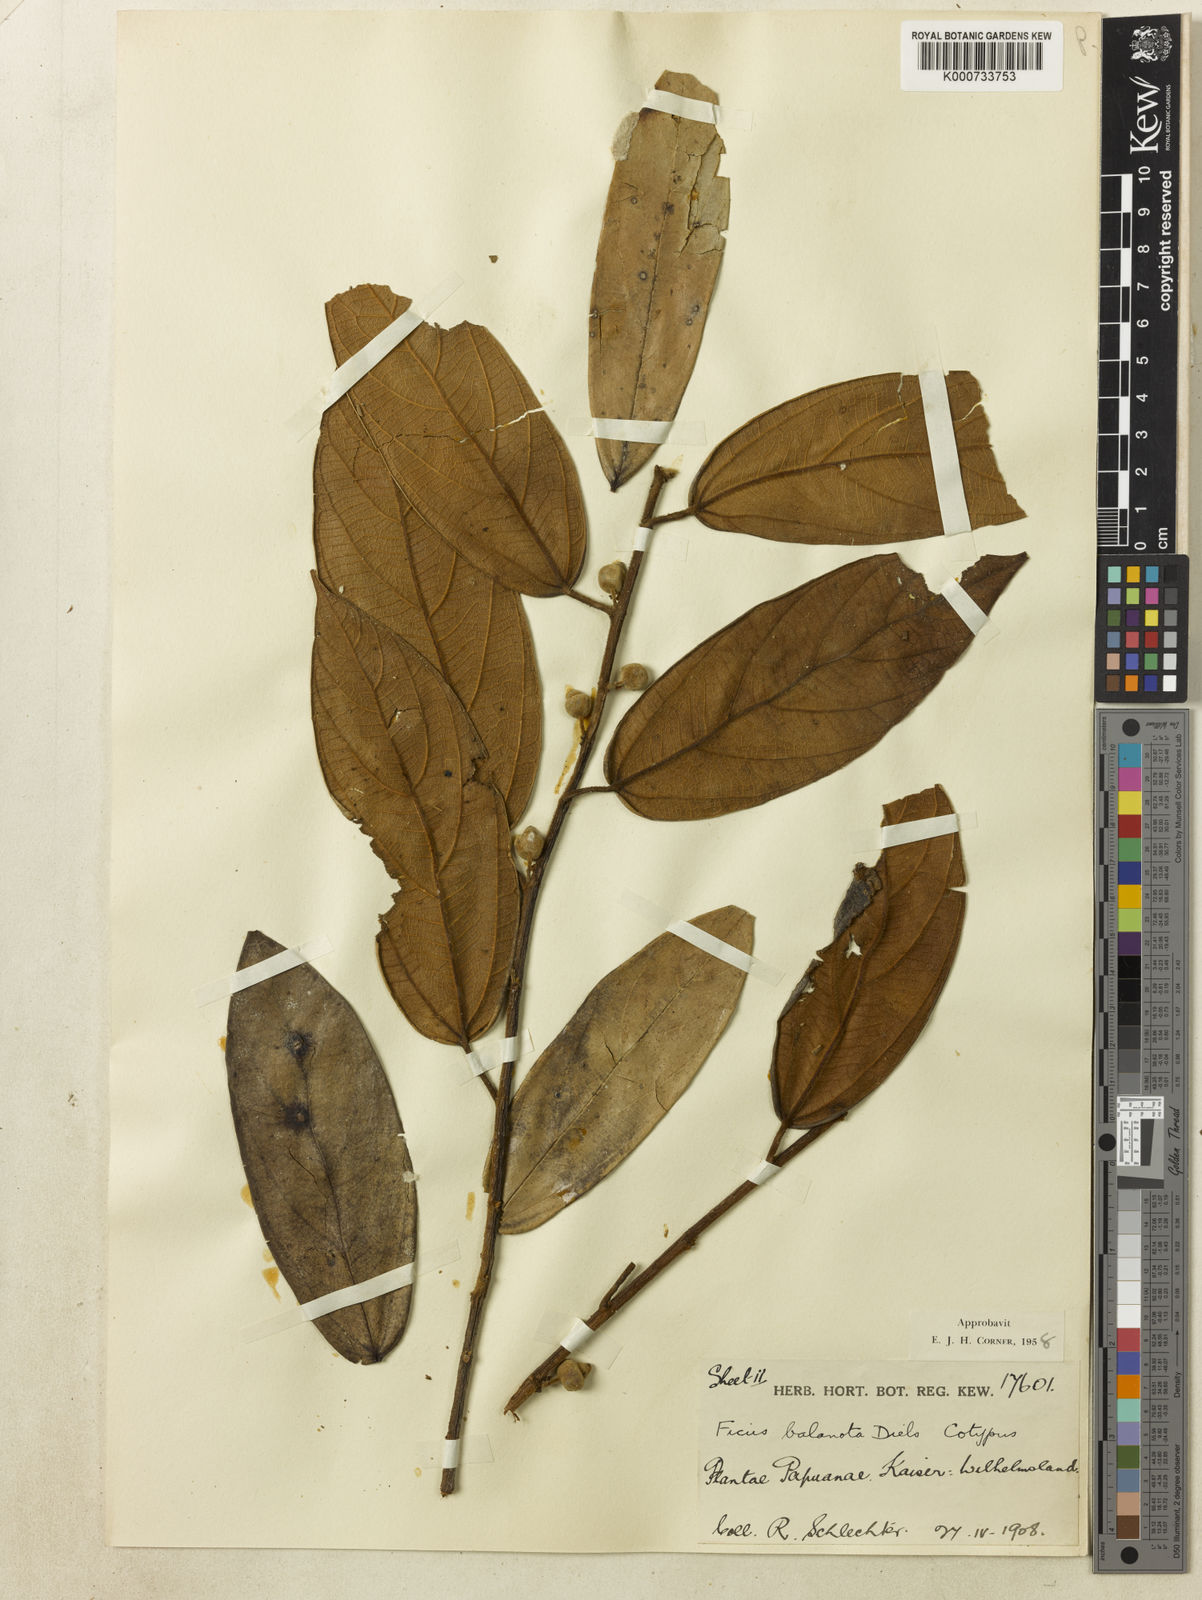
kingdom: Plantae
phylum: Tracheophyta
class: Magnoliopsida
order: Rosales
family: Moraceae
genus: Ficus
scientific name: Ficus baeuerlenii
